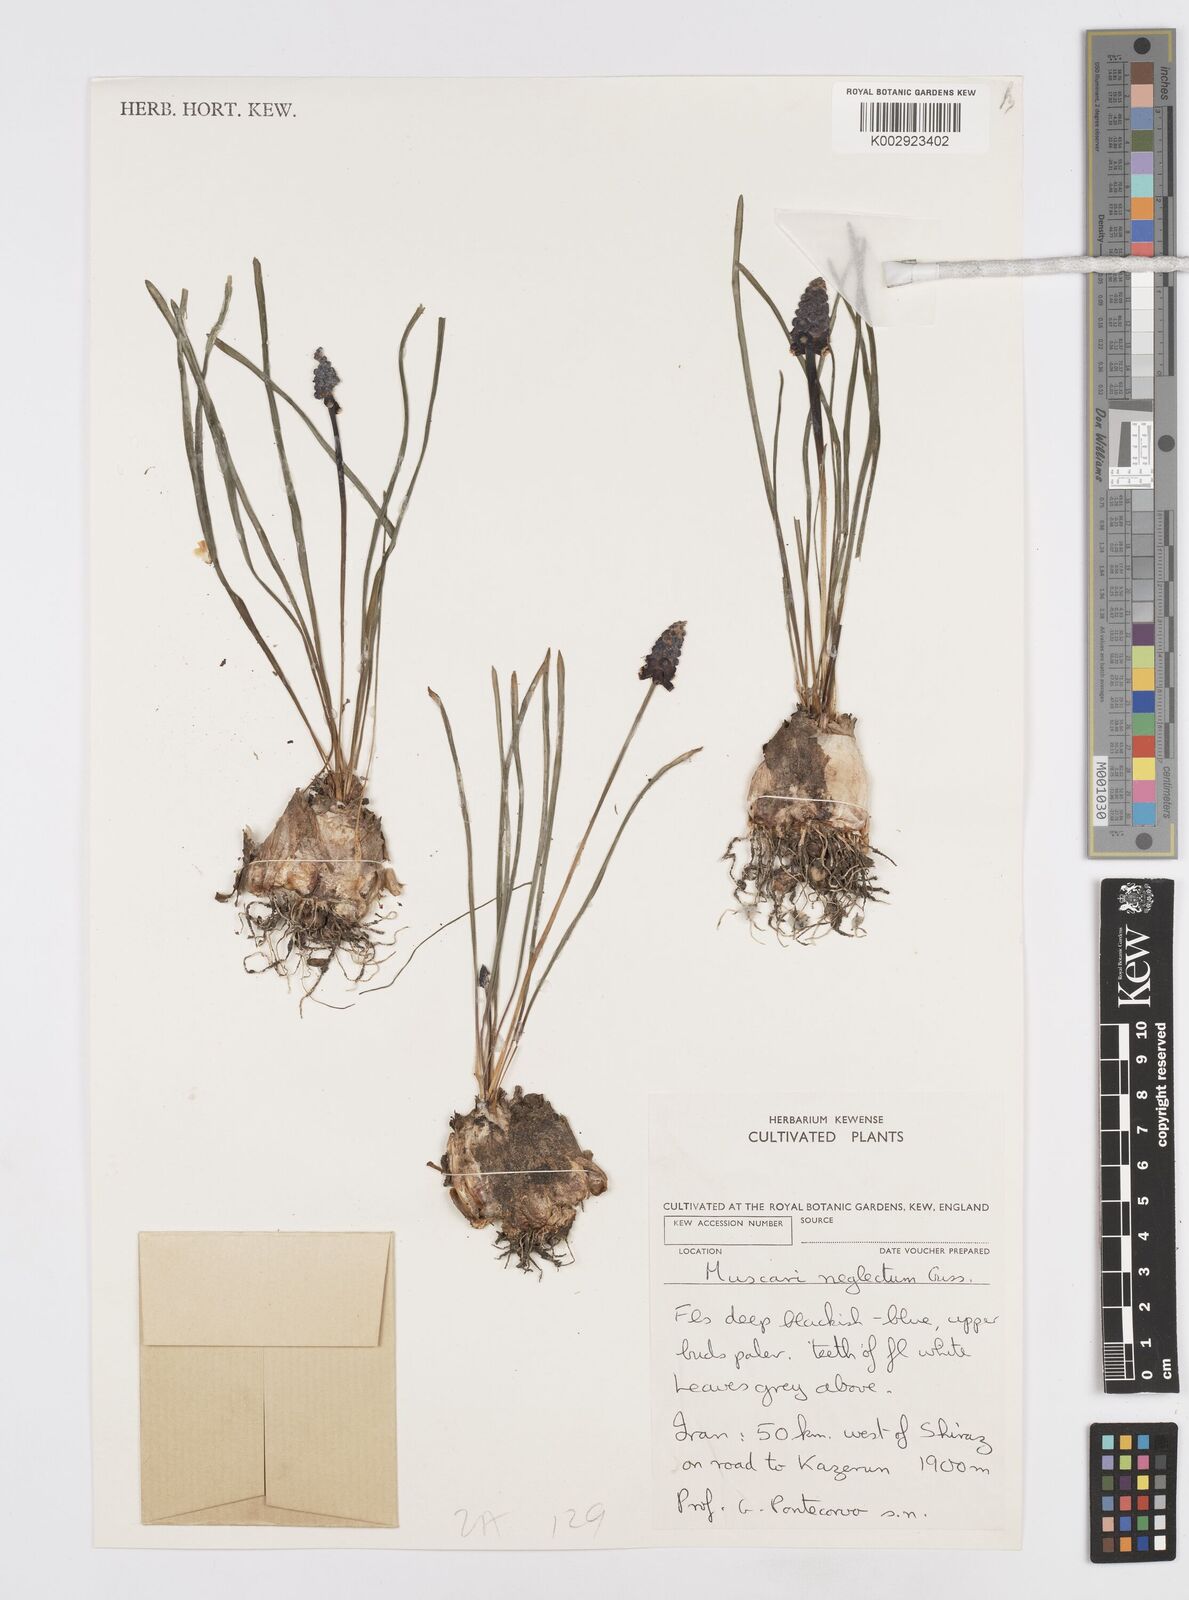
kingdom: Plantae
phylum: Tracheophyta
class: Liliopsida
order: Asparagales
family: Asparagaceae
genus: Muscari
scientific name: Muscari neglectum
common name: Grape-hyacinth
